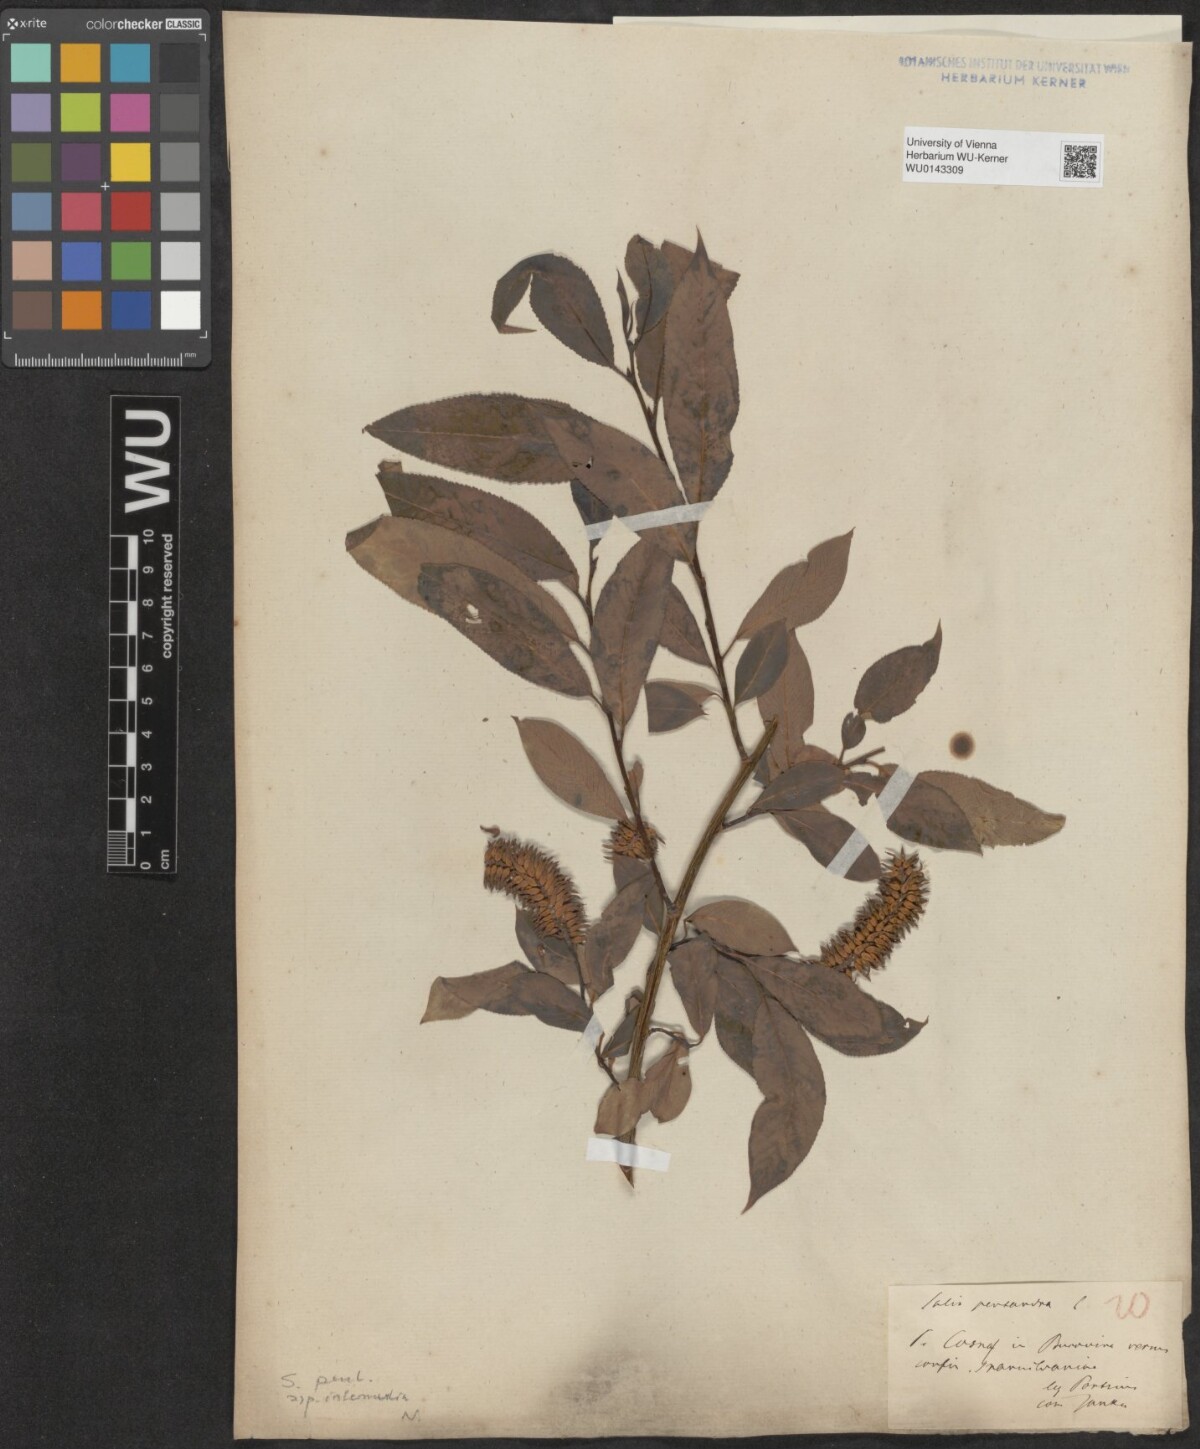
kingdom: Plantae
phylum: Tracheophyta
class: Magnoliopsida
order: Malpighiales
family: Salicaceae
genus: Salix
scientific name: Salix pentandra
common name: Bay willow
